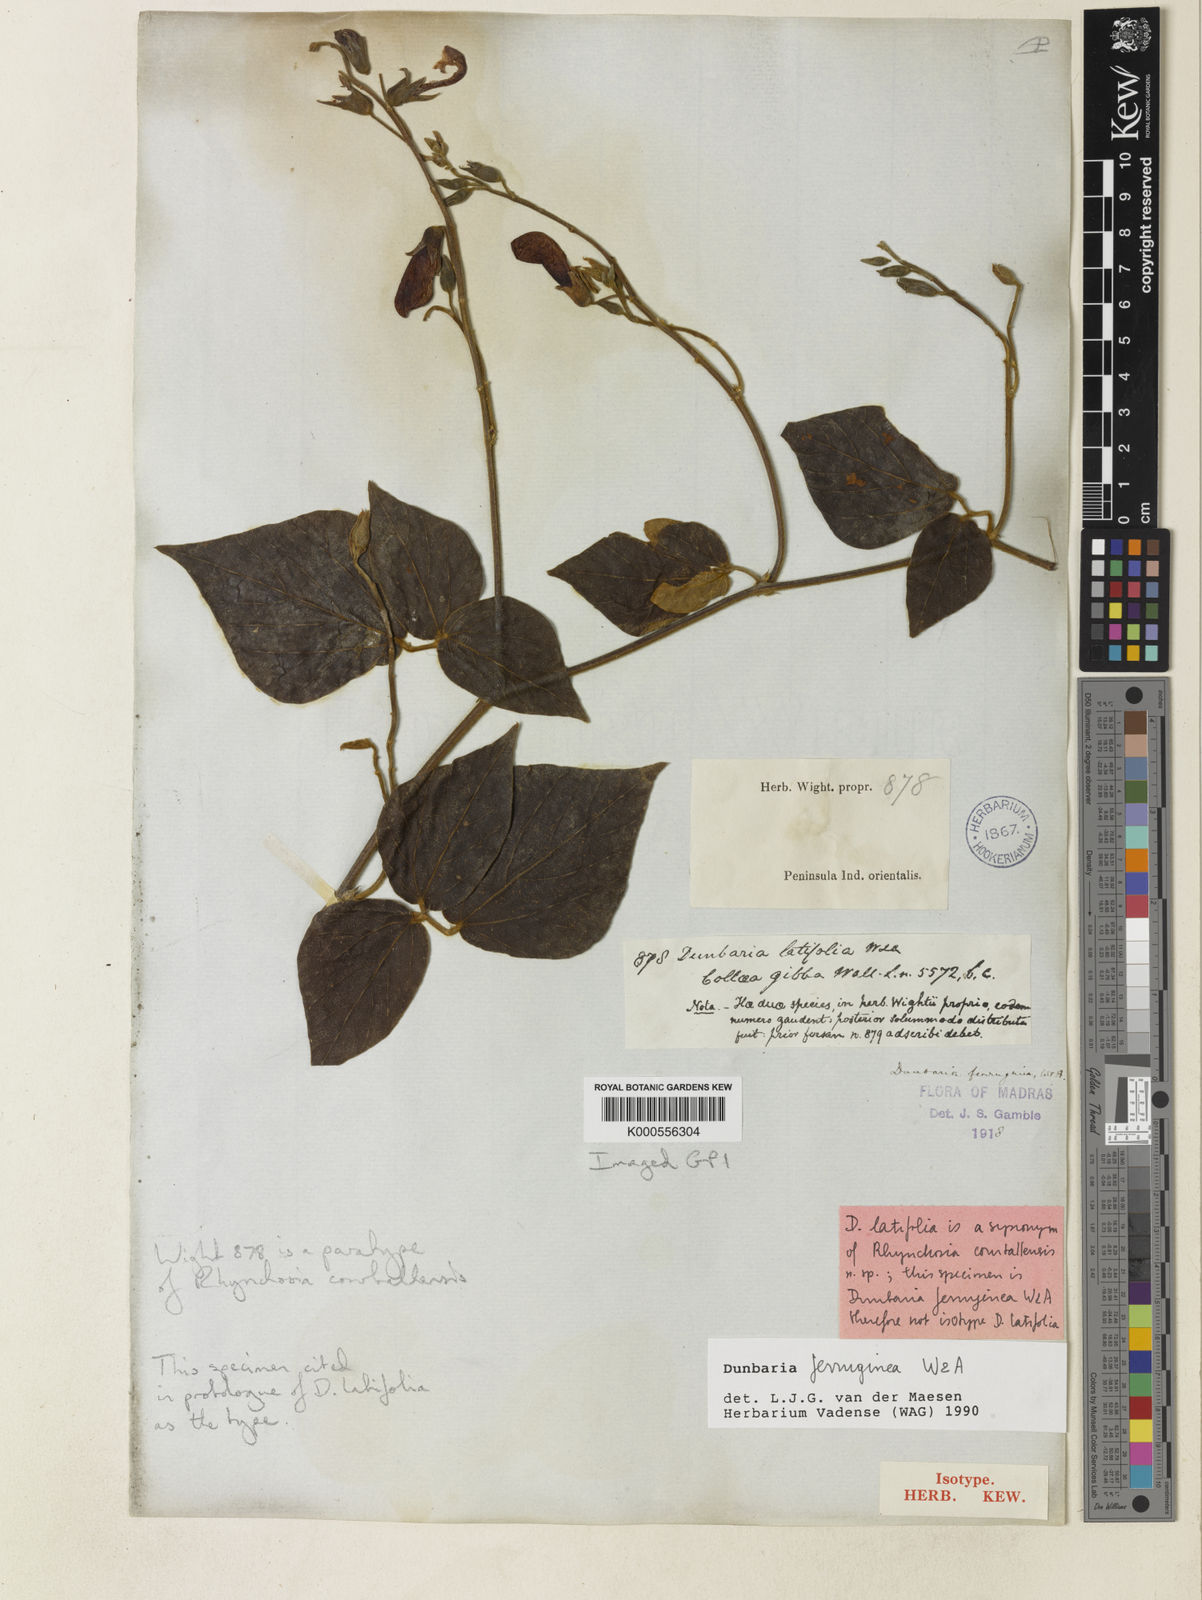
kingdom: Plantae
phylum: Tracheophyta
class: Magnoliopsida
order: Fabales
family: Fabaceae
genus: Dunbaria
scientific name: Dunbaria ferruginea
